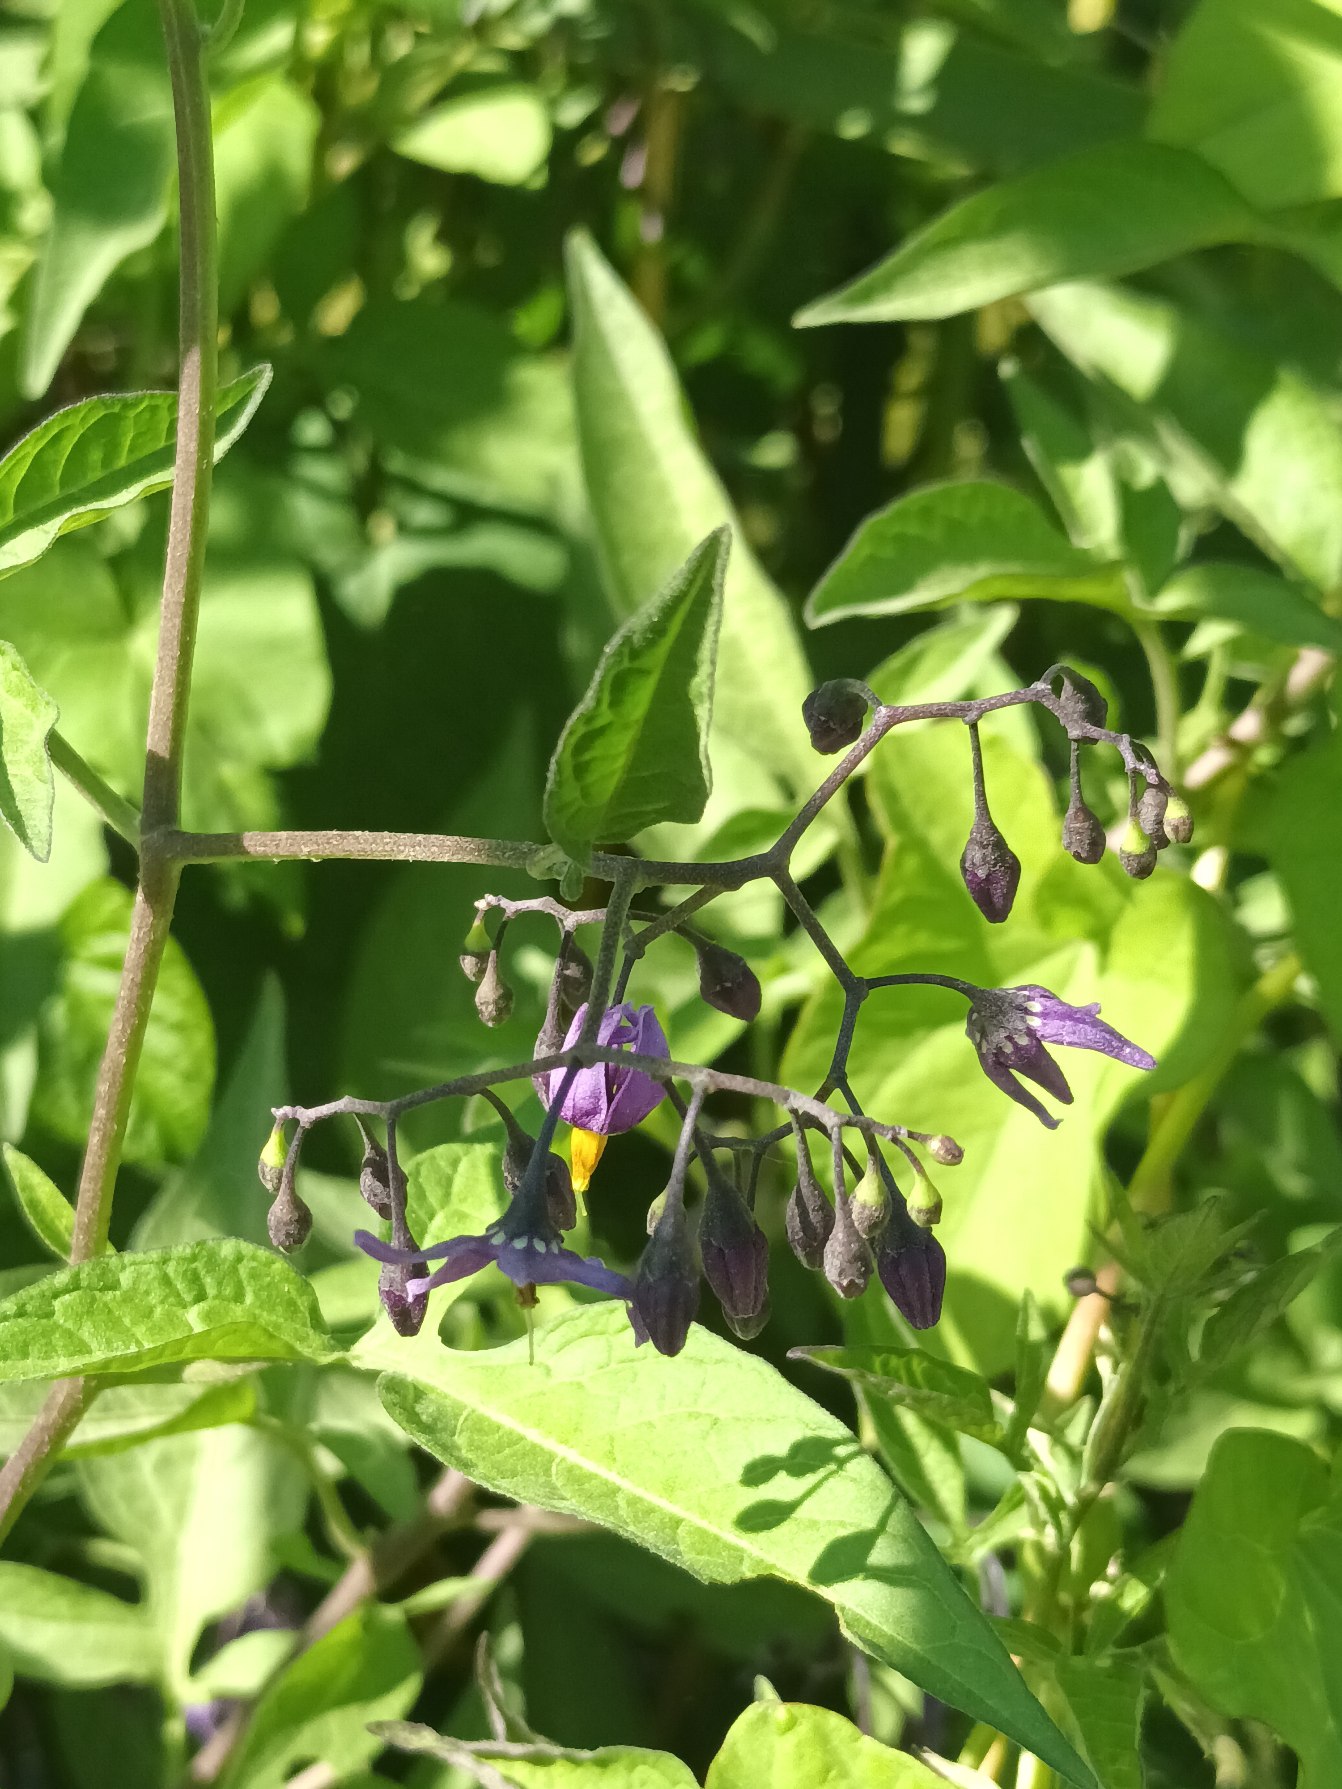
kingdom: Plantae
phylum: Tracheophyta
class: Magnoliopsida
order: Solanales
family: Solanaceae
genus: Solanum
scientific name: Solanum dulcamara
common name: Bittersød natskygge
